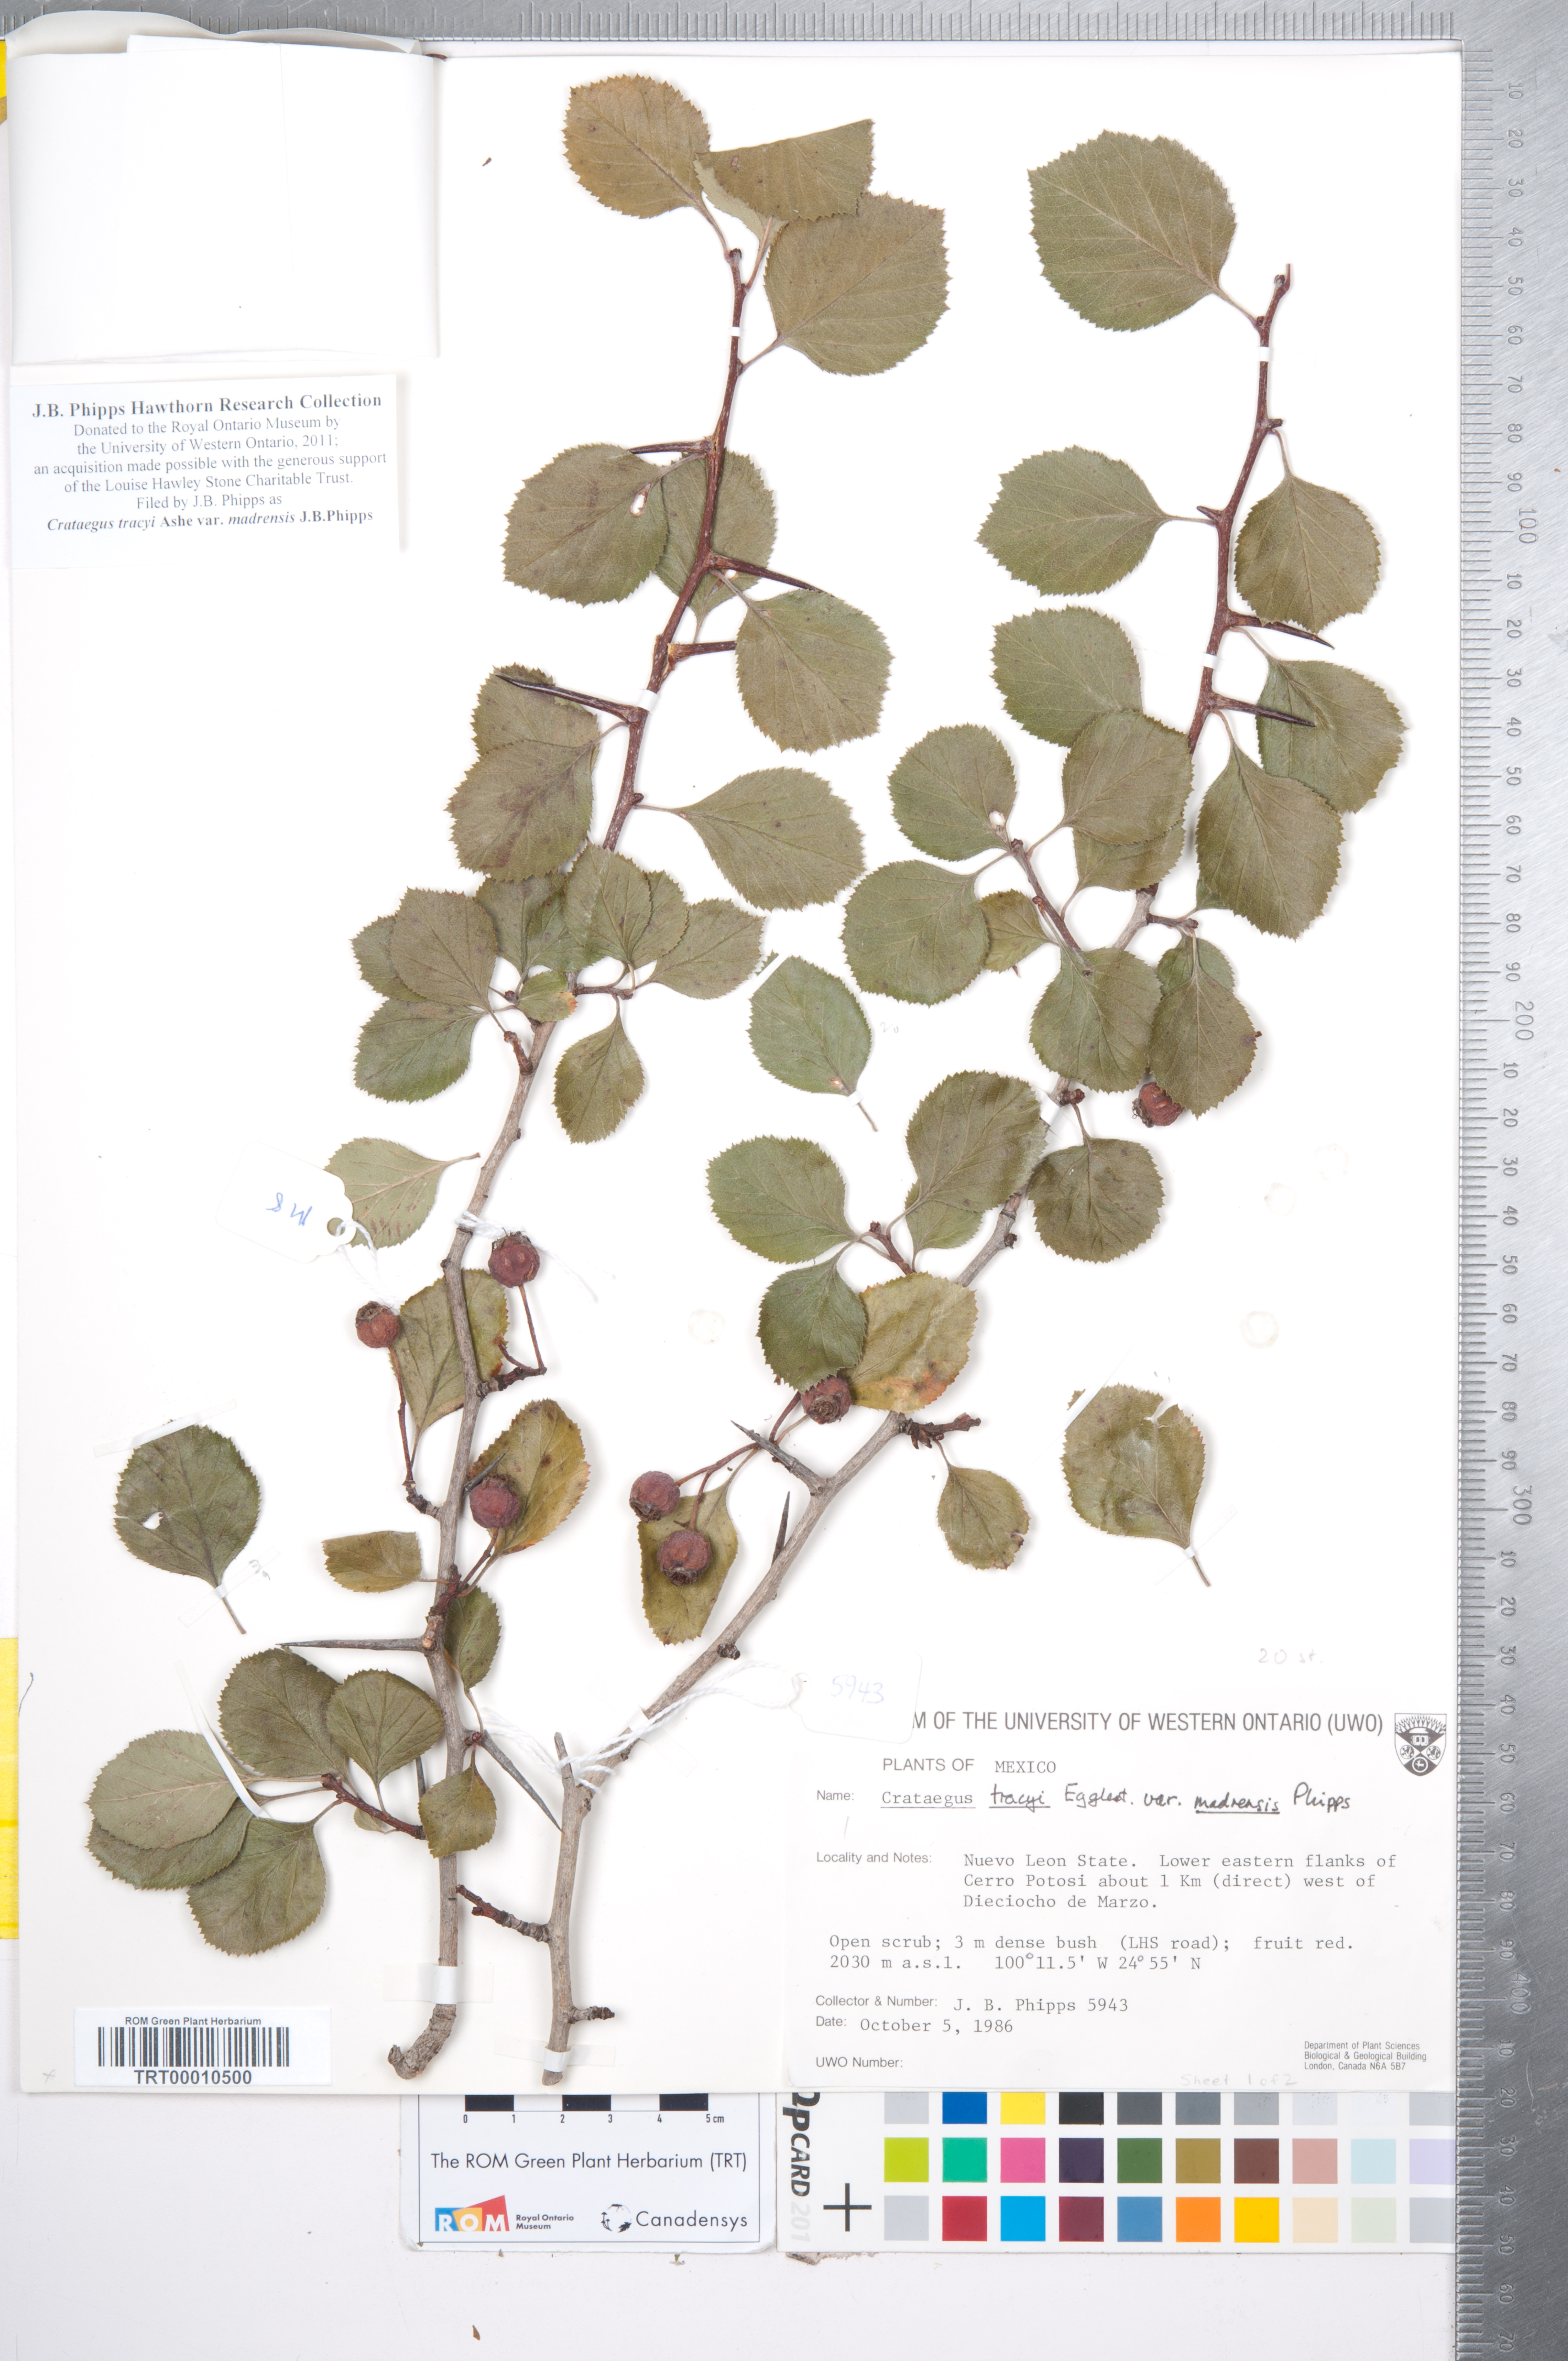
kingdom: Plantae
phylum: Tracheophyta
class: Magnoliopsida
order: Rosales
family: Rosaceae
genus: Crataegus
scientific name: Crataegus tracyi
